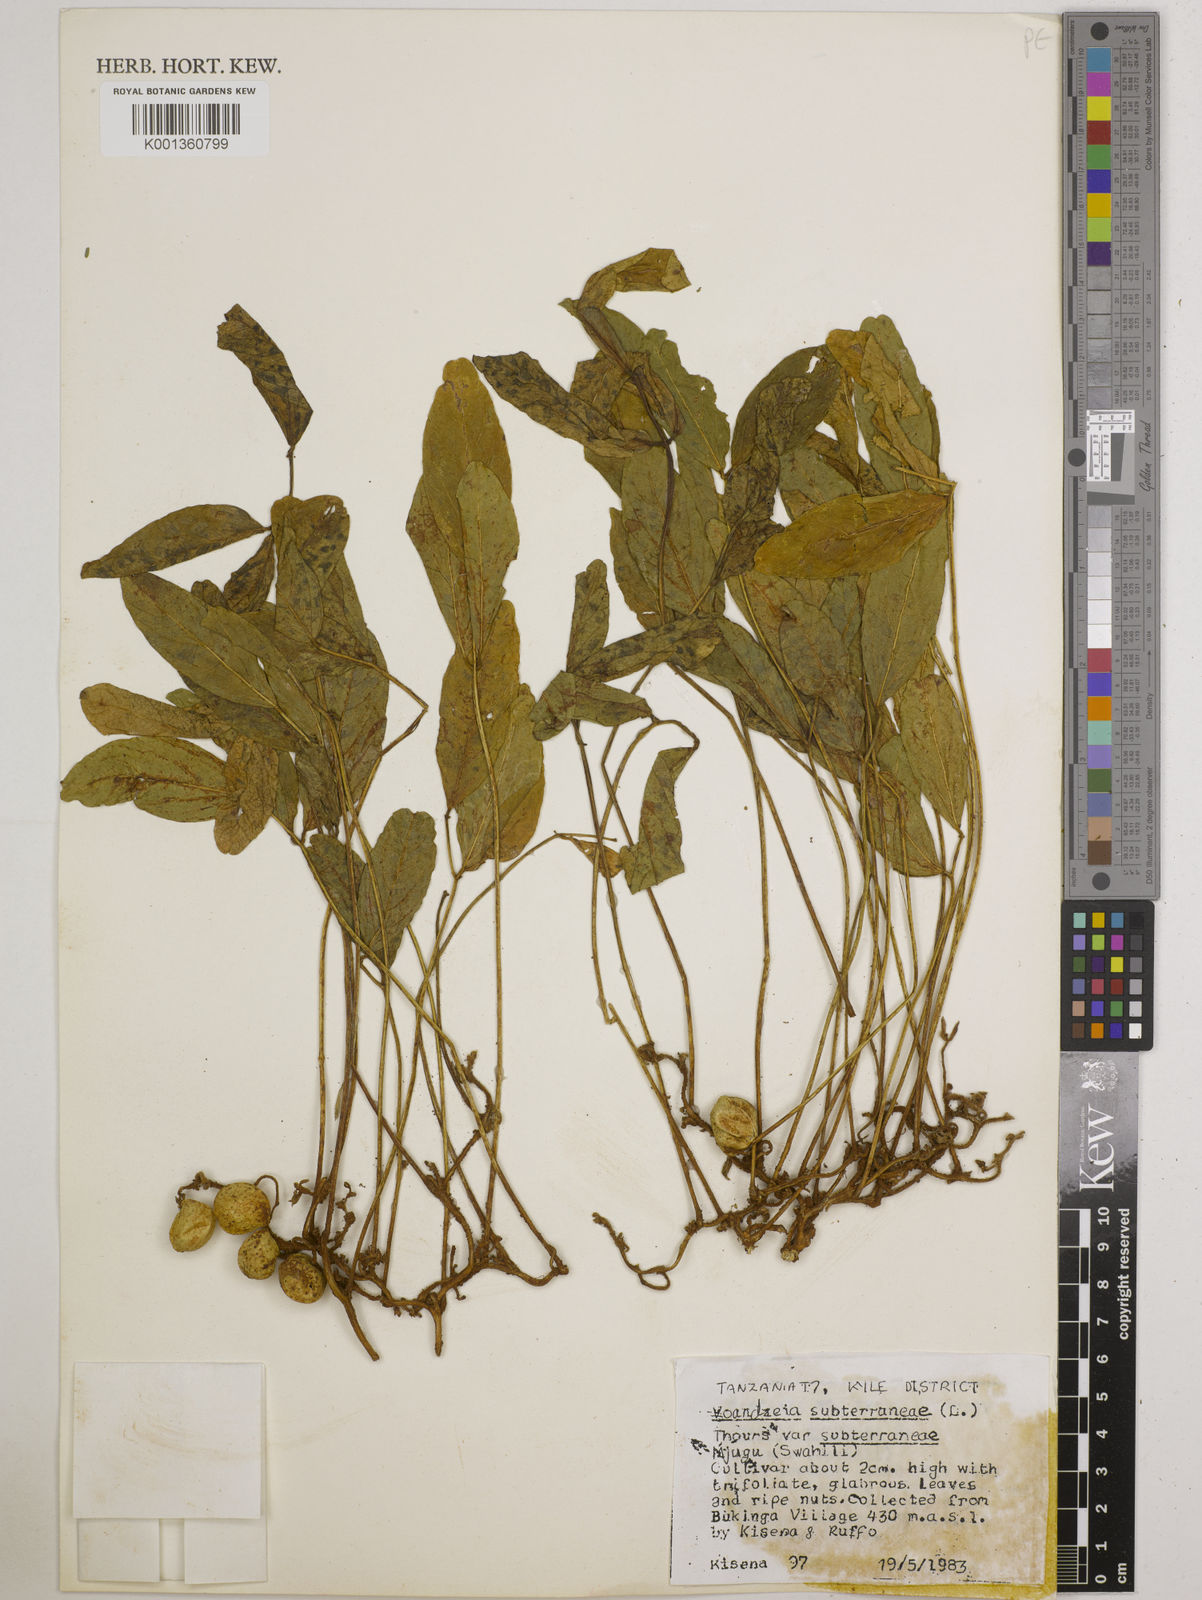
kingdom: Plantae
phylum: Tracheophyta
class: Magnoliopsida
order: Fabales
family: Fabaceae
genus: Vigna
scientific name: Vigna subterranea
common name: Bambara groundnut
